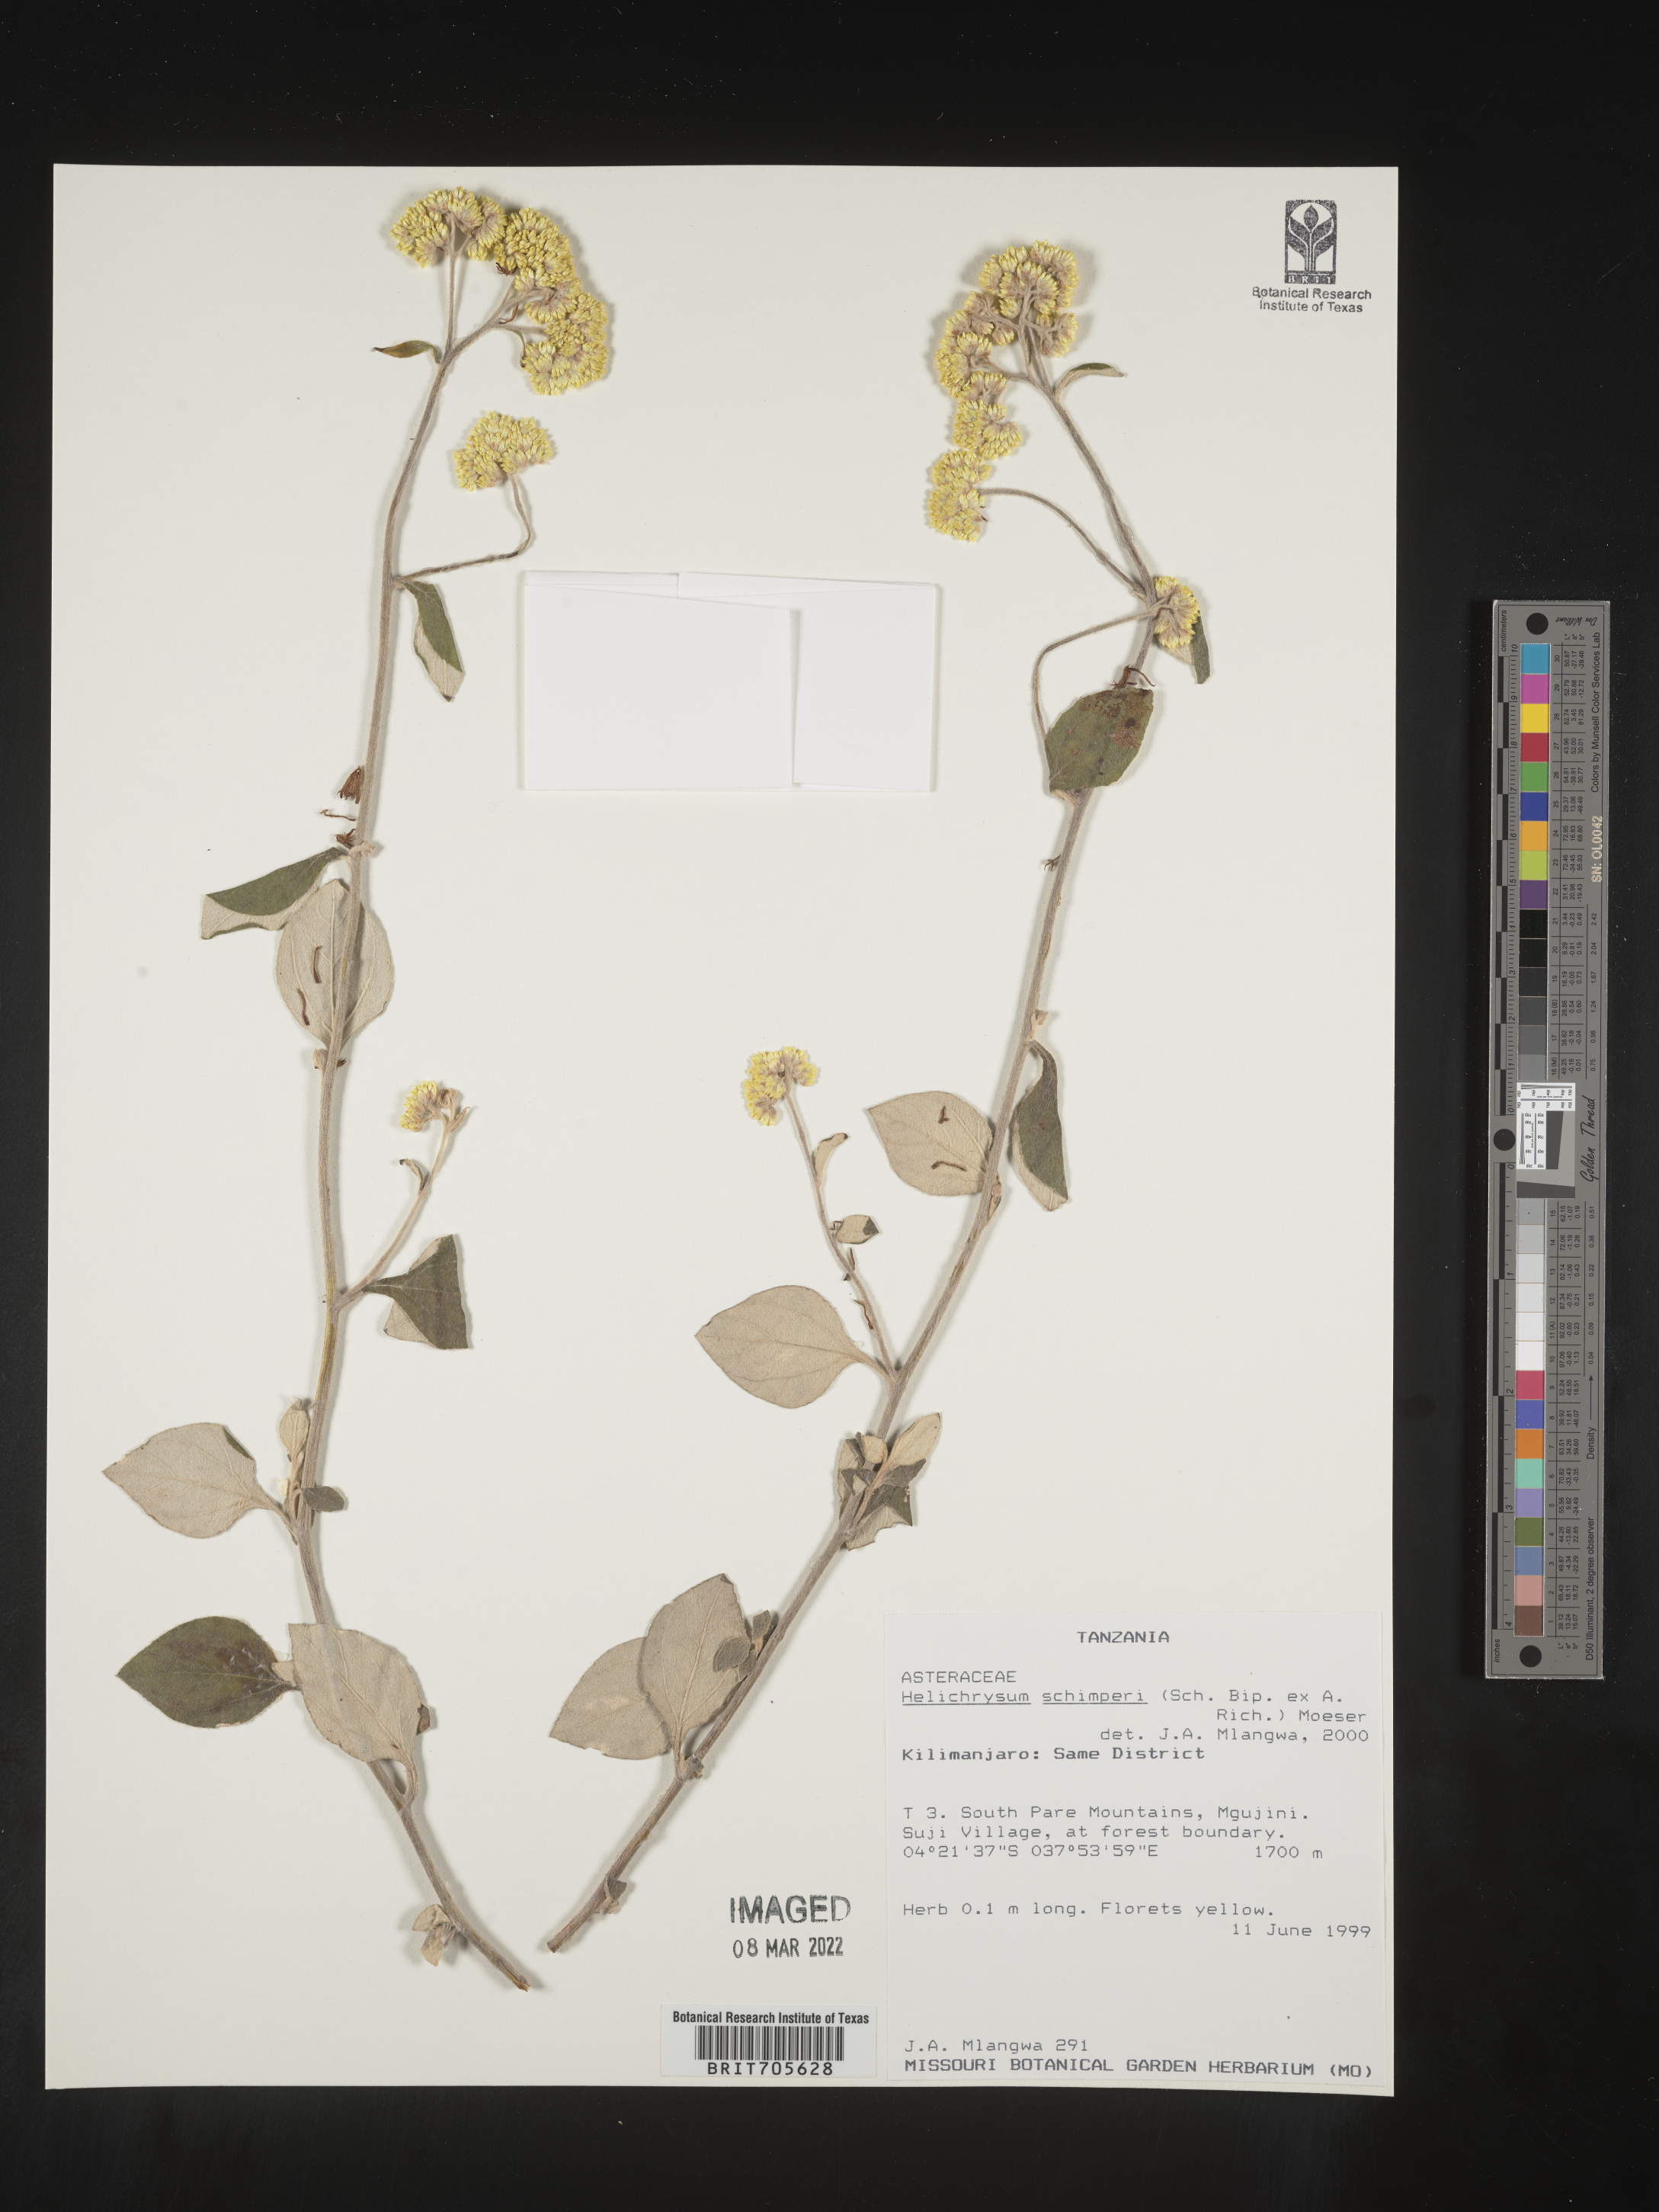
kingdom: Plantae
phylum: Tracheophyta
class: Magnoliopsida
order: Asterales
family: Asteraceae
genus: Helichrysum
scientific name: Helichrysum schimperi
